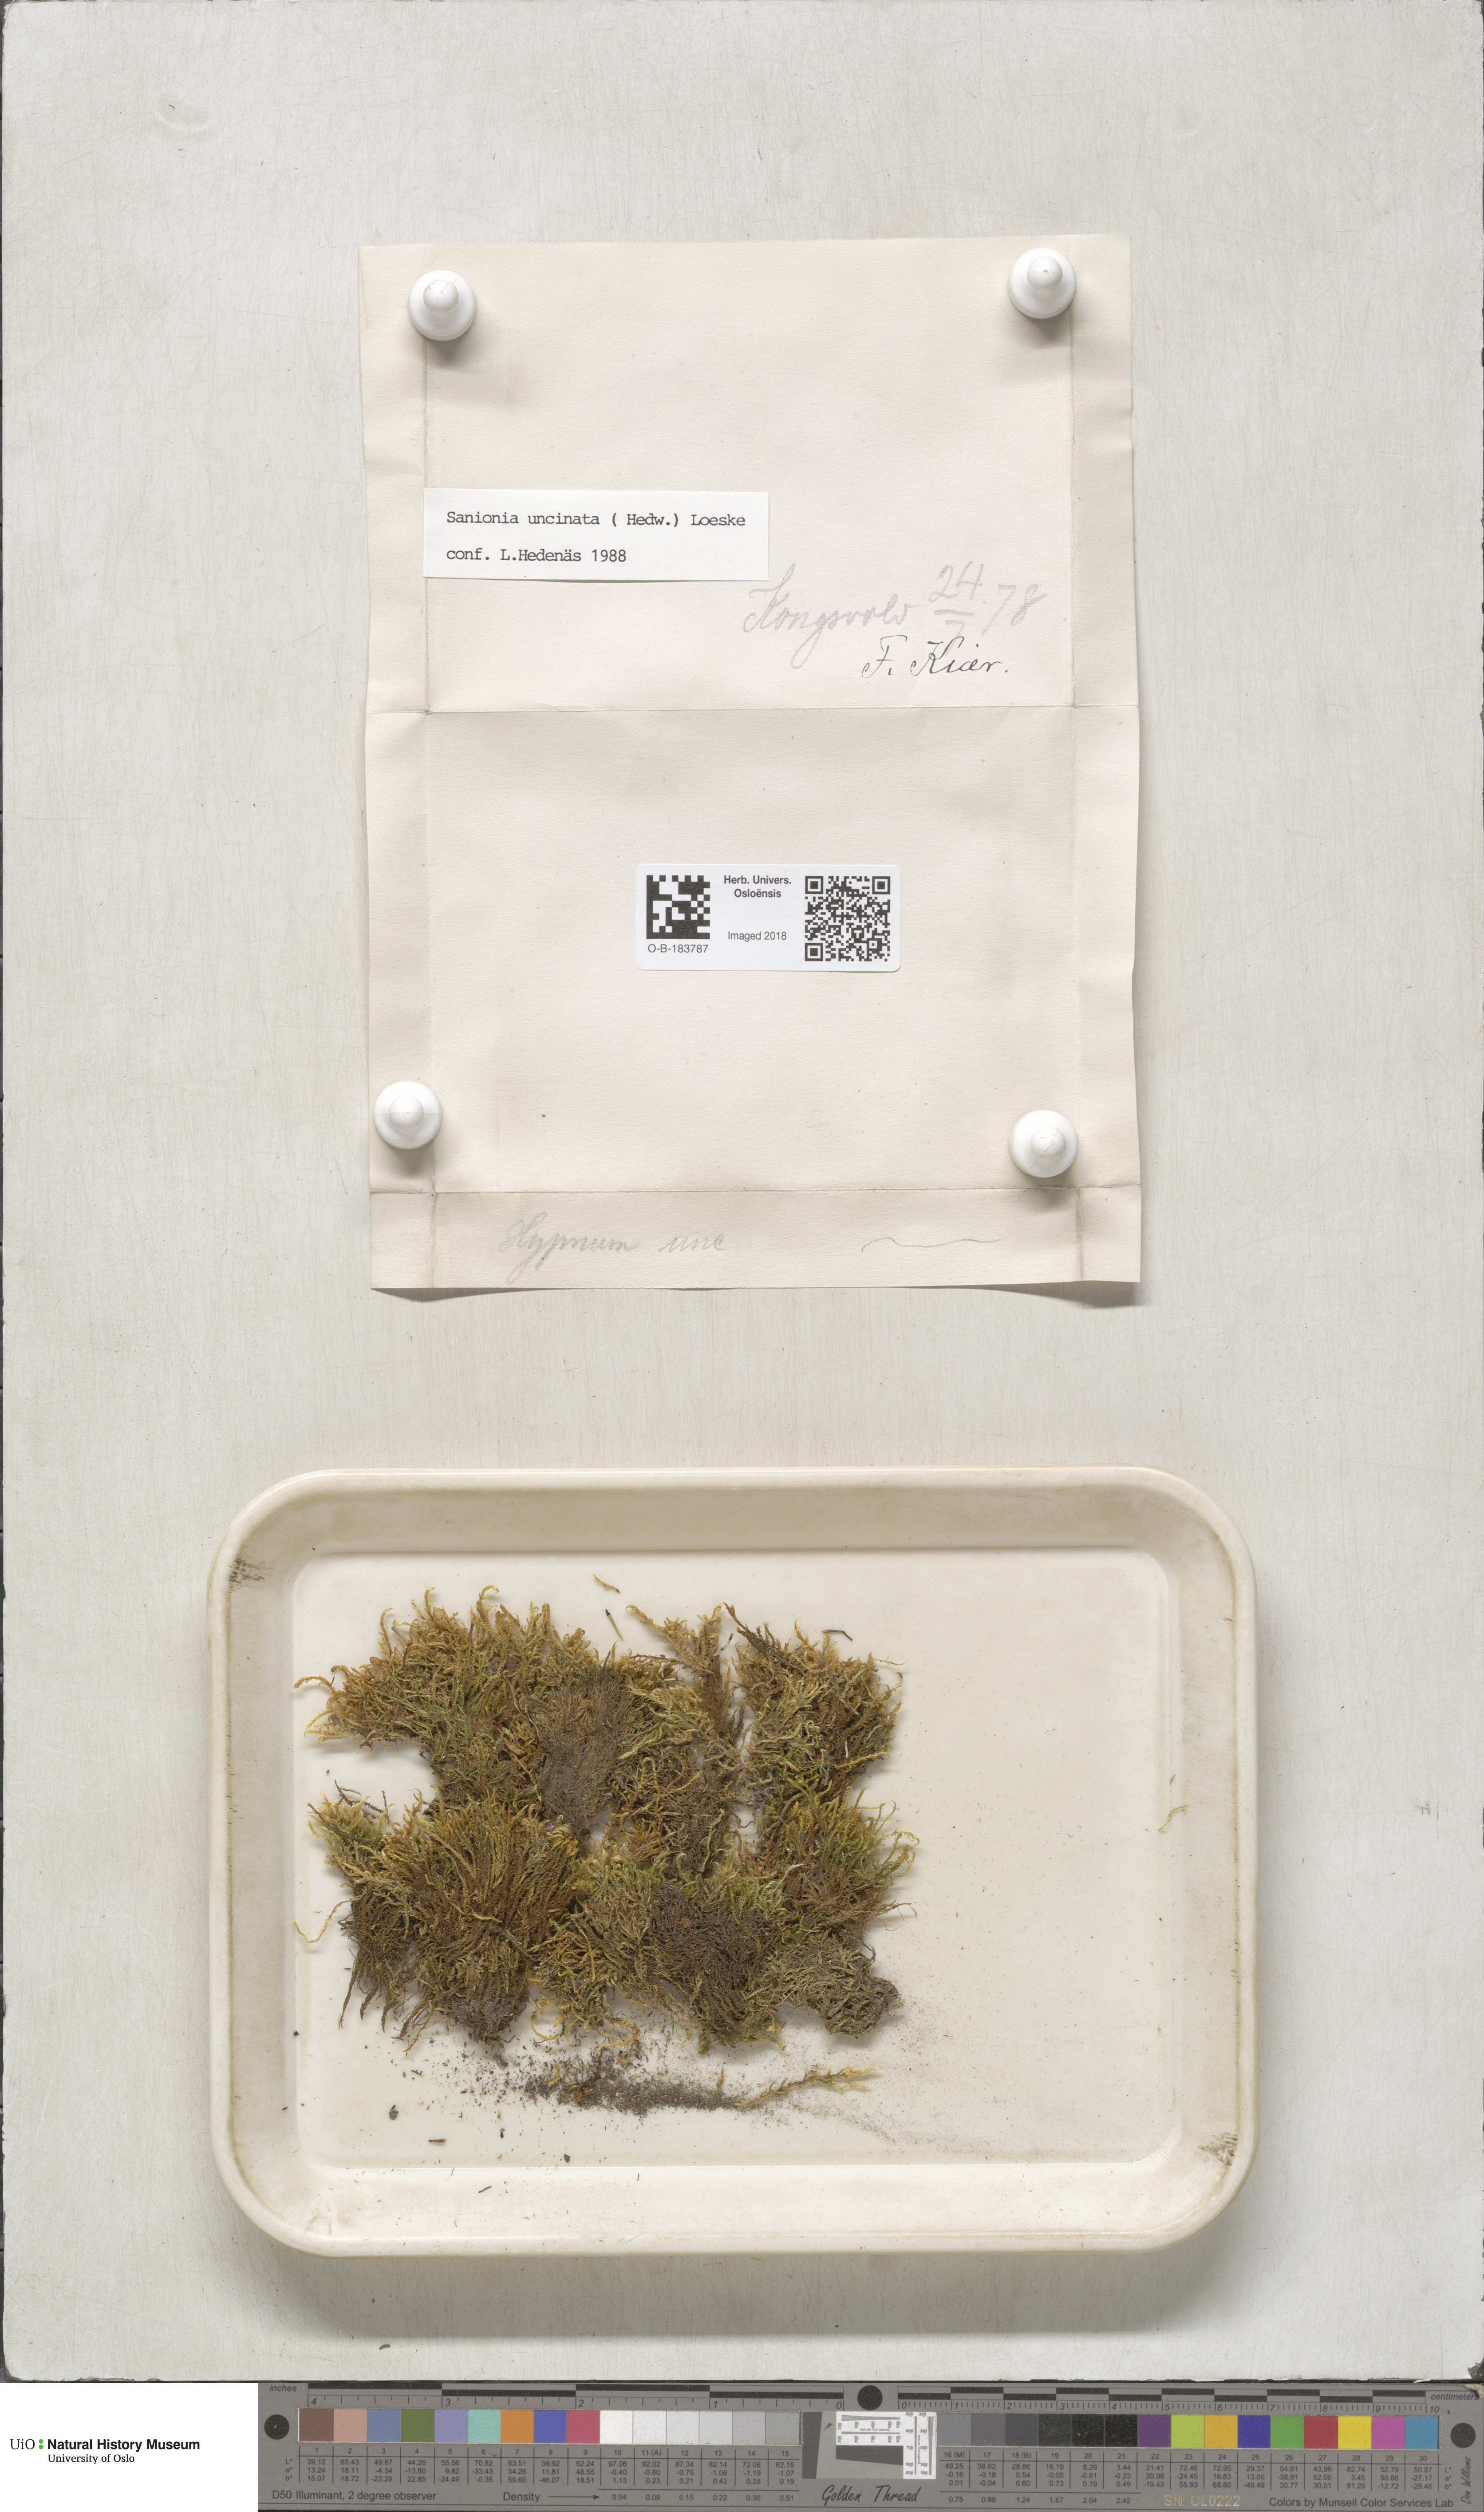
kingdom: Plantae
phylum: Bryophyta
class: Bryopsida
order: Hypnales
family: Scorpidiaceae
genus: Sanionia
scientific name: Sanionia uncinata
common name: Sickle moss
